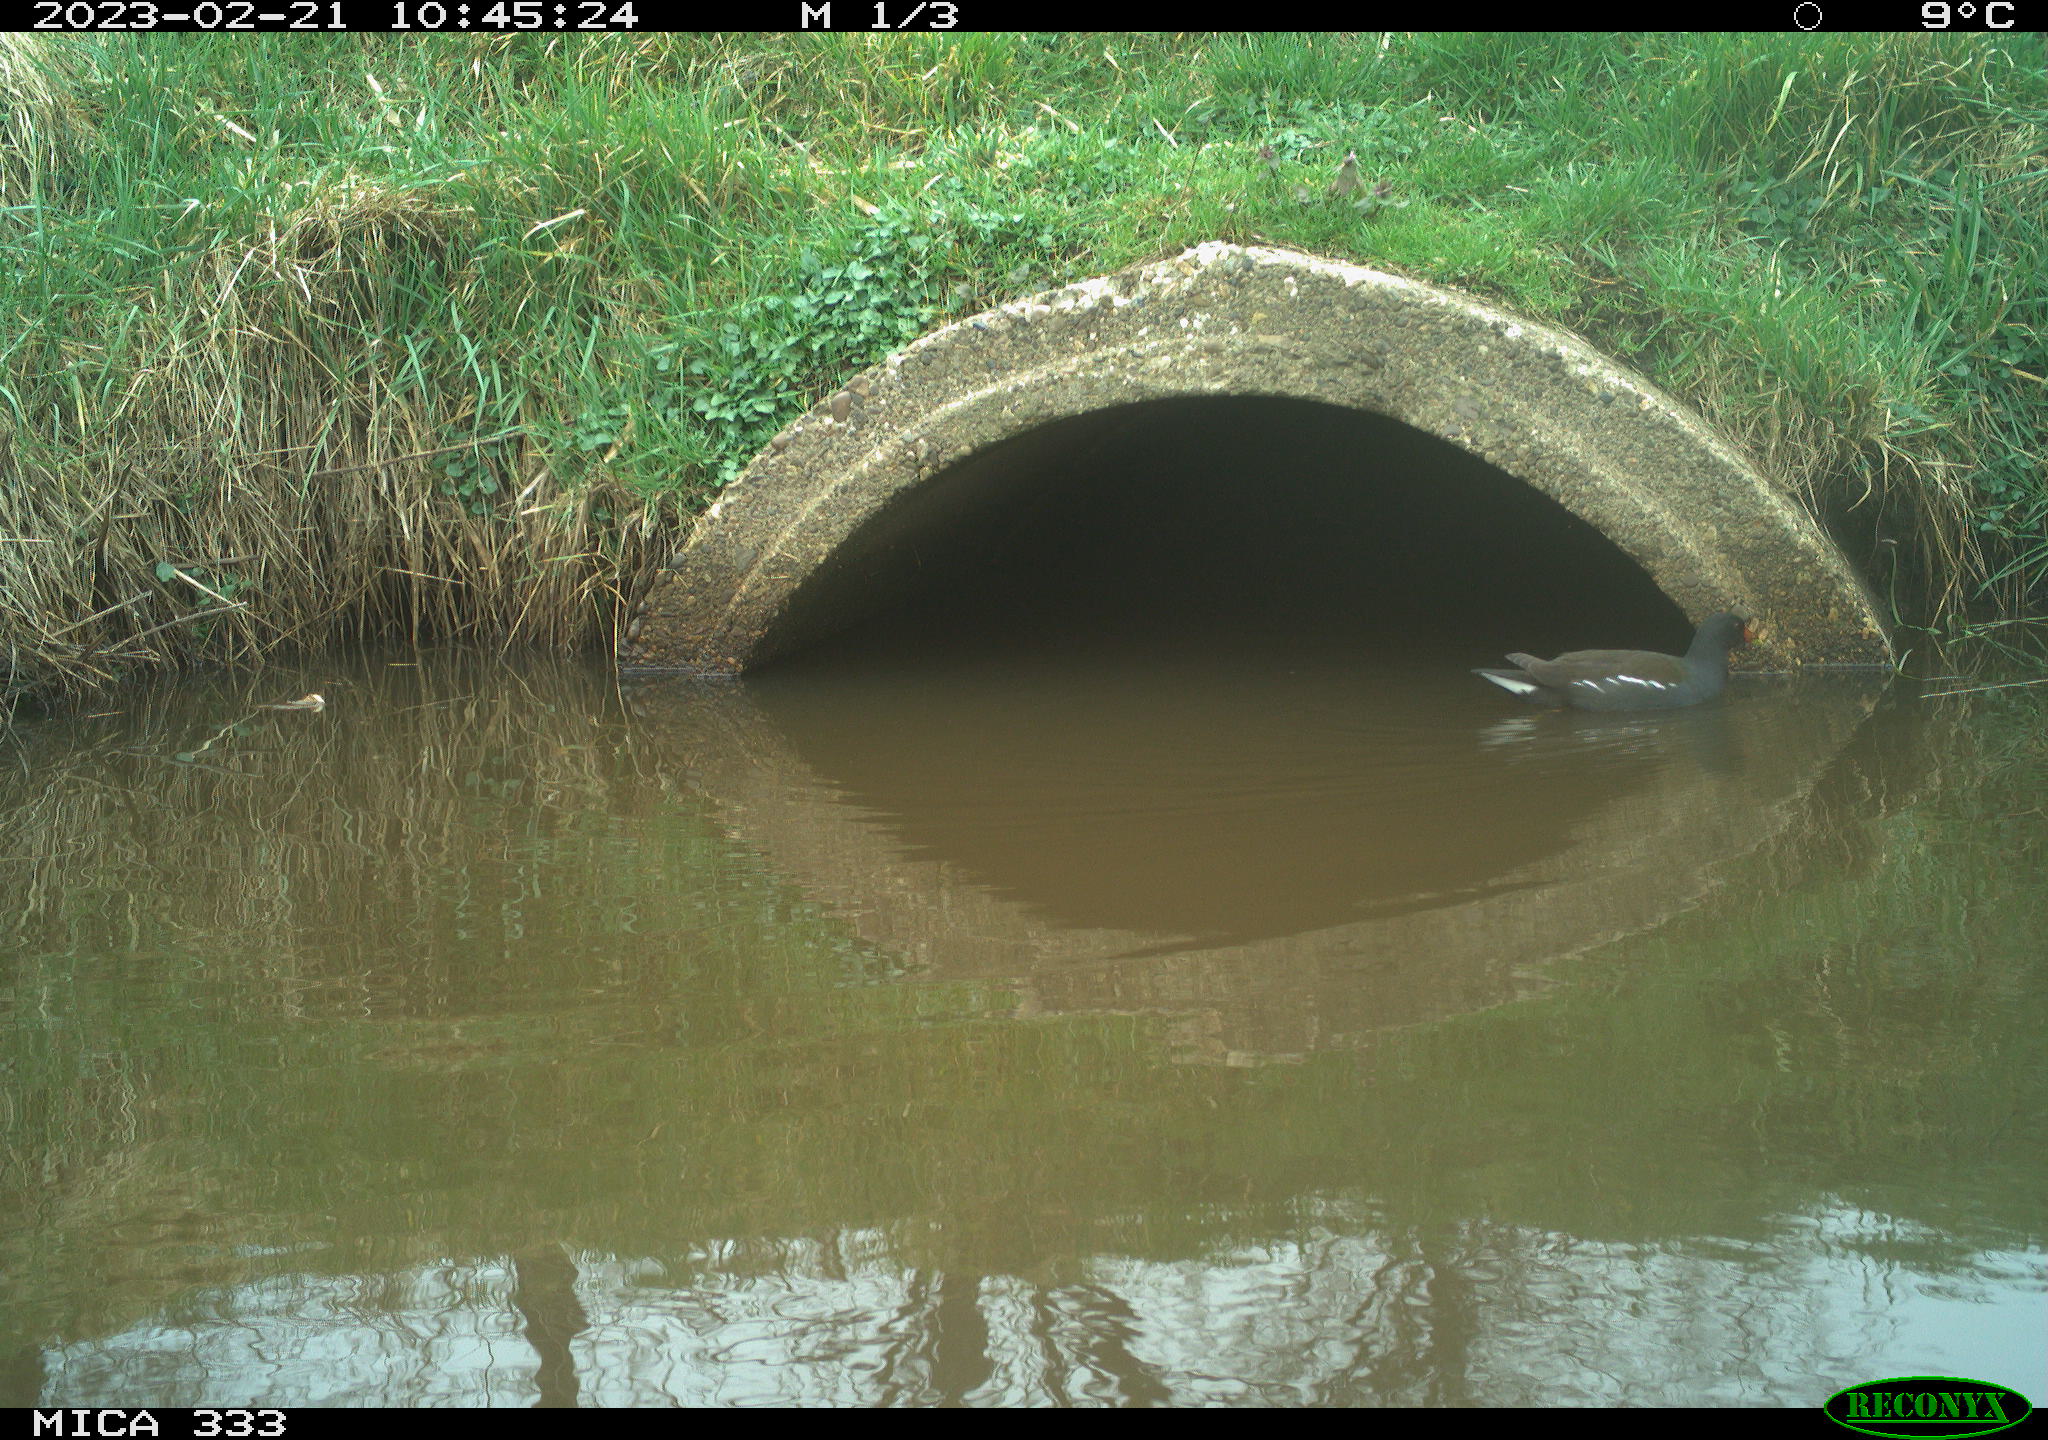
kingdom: Animalia
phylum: Chordata
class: Aves
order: Gruiformes
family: Rallidae
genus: Gallinula
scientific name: Gallinula chloropus
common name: Common moorhen
